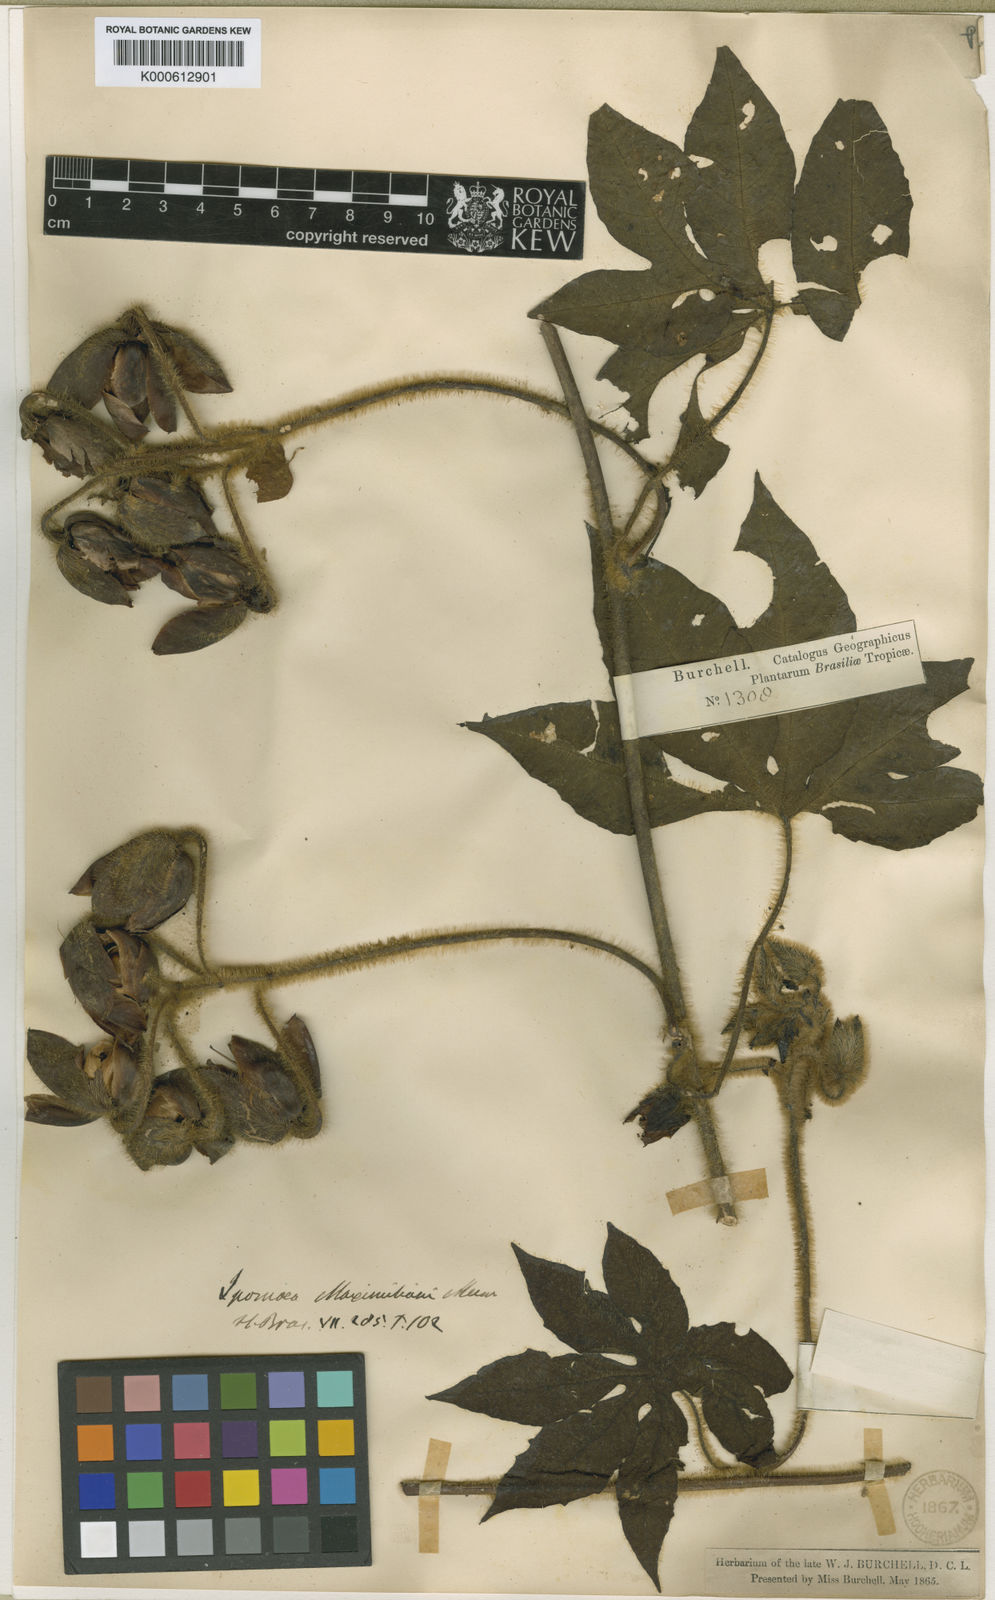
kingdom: Plantae
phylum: Tracheophyta
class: Magnoliopsida
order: Solanales
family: Convolvulaceae
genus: Distimake
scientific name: Distimake dissectus
